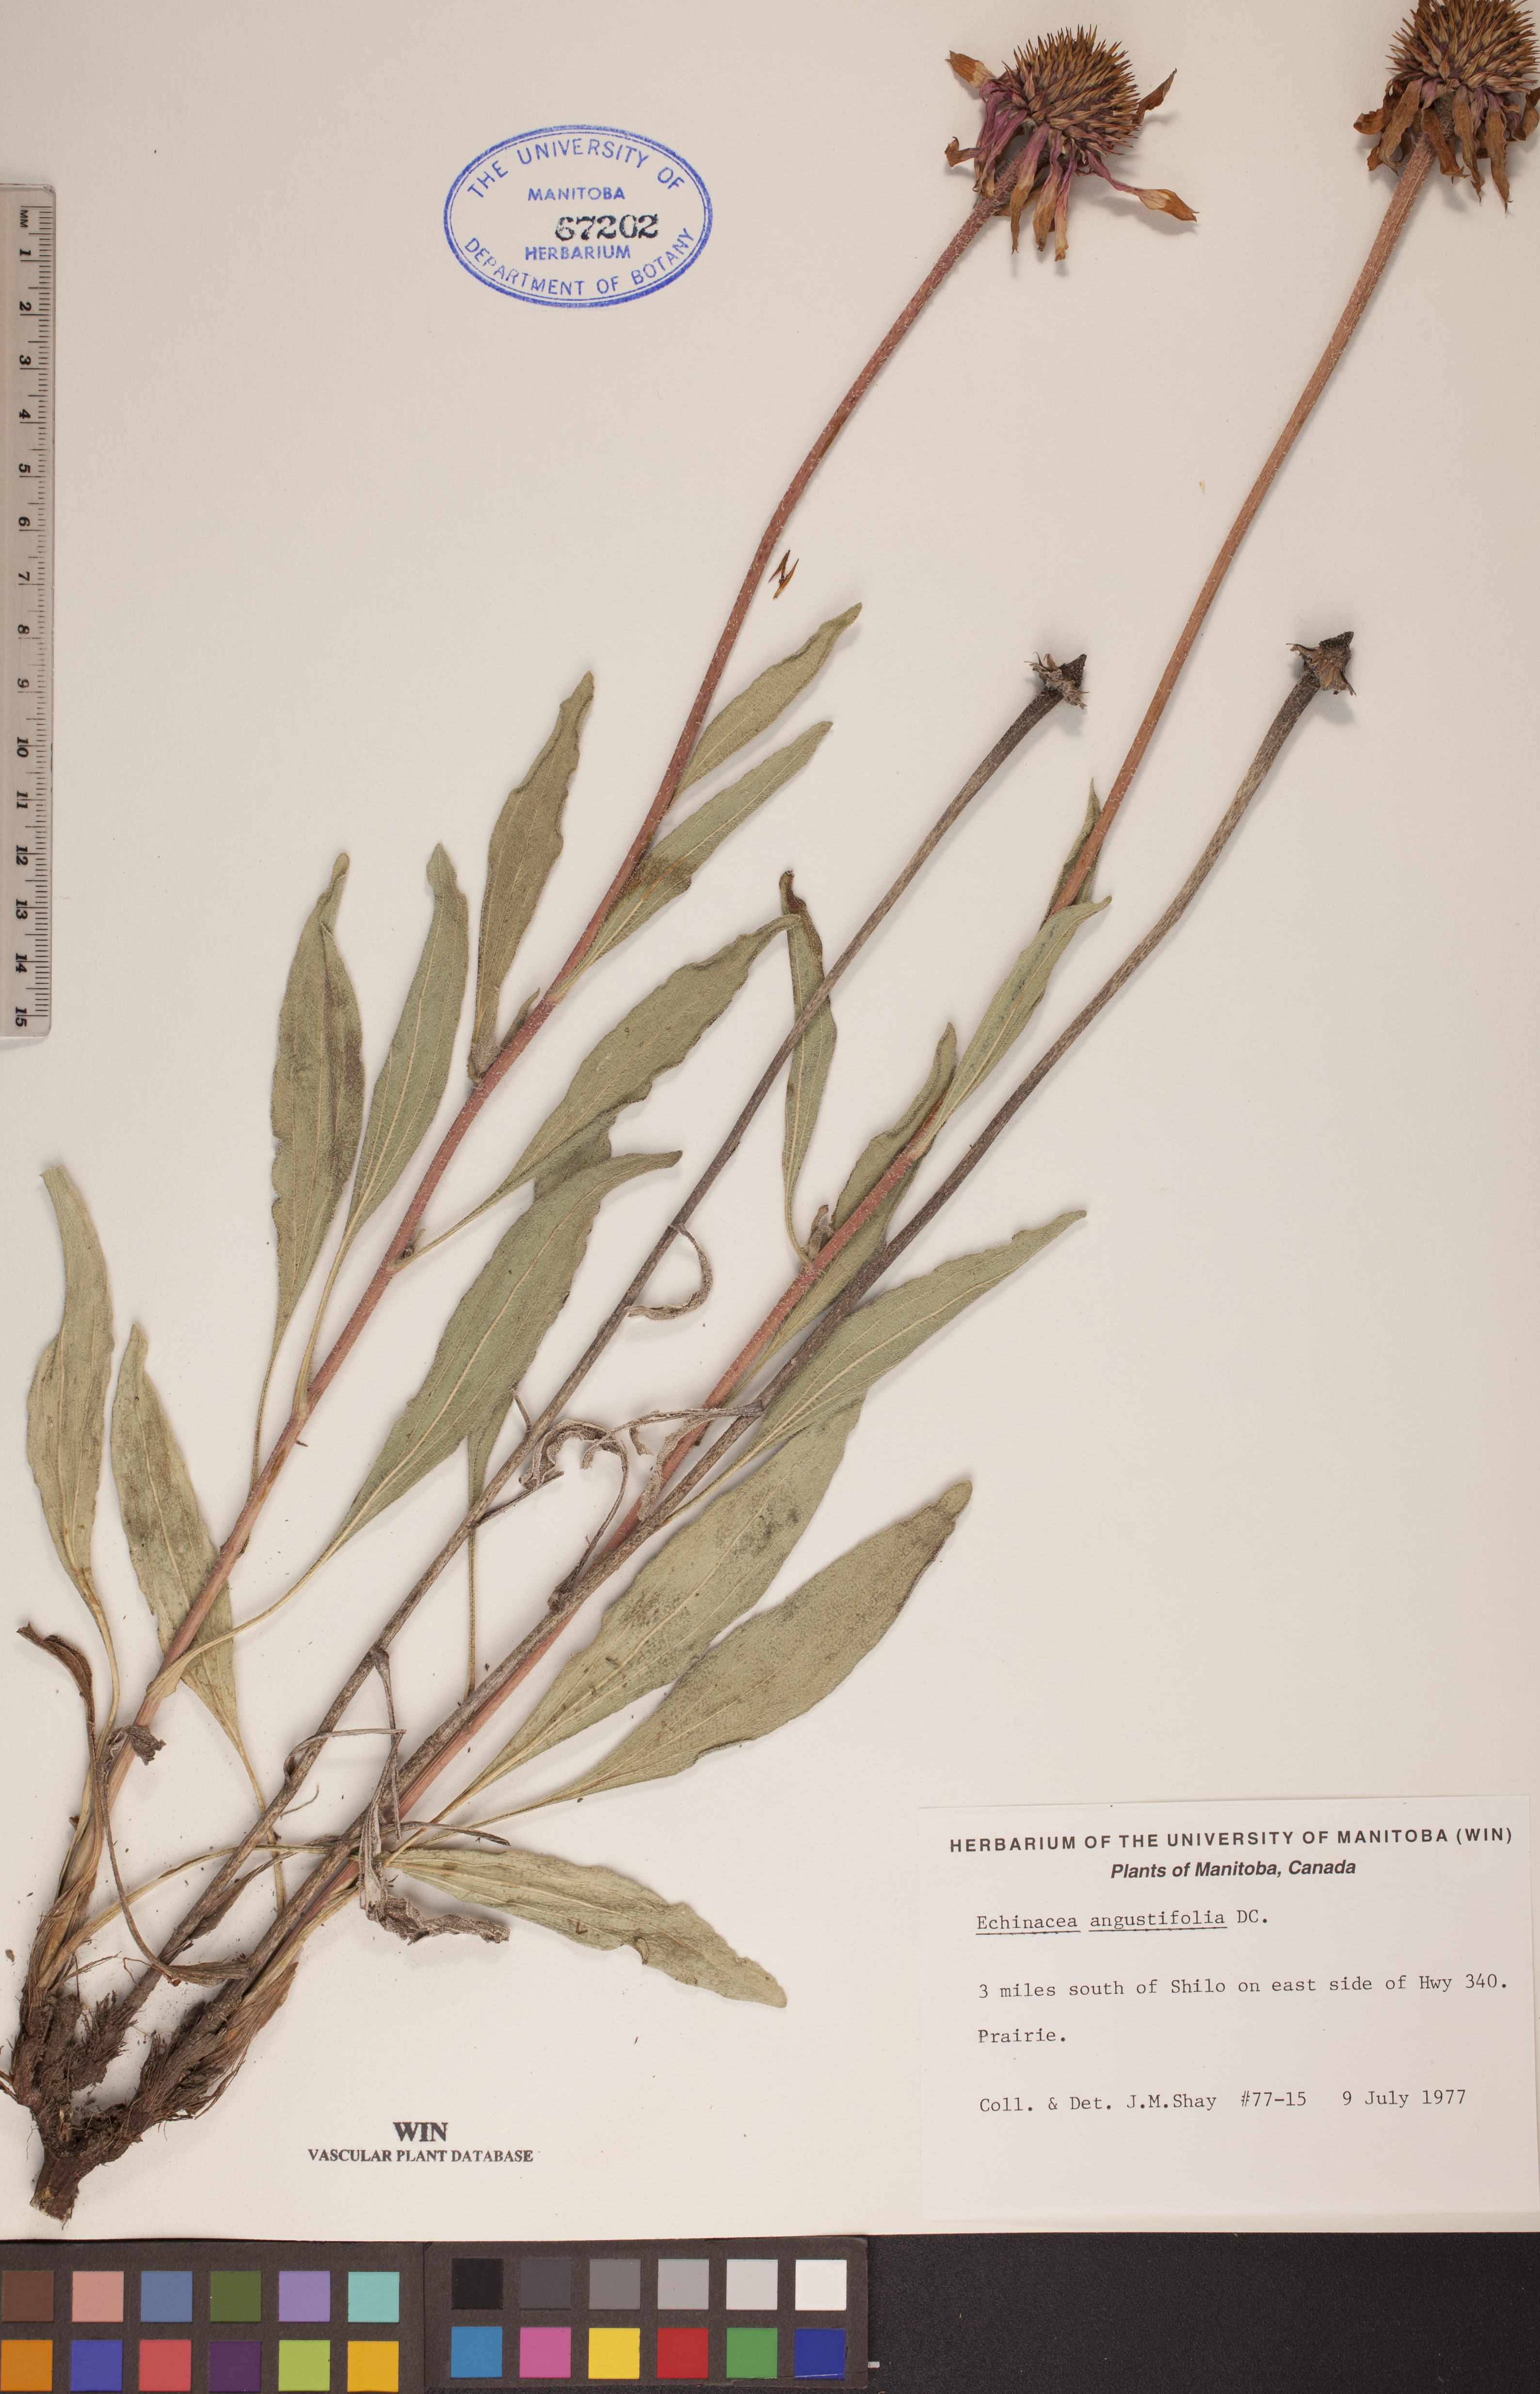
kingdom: Plantae
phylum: Tracheophyta
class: Magnoliopsida
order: Asterales
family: Asteraceae
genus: Echinacea
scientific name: Echinacea angustifolia
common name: Black-sampson echinacea
